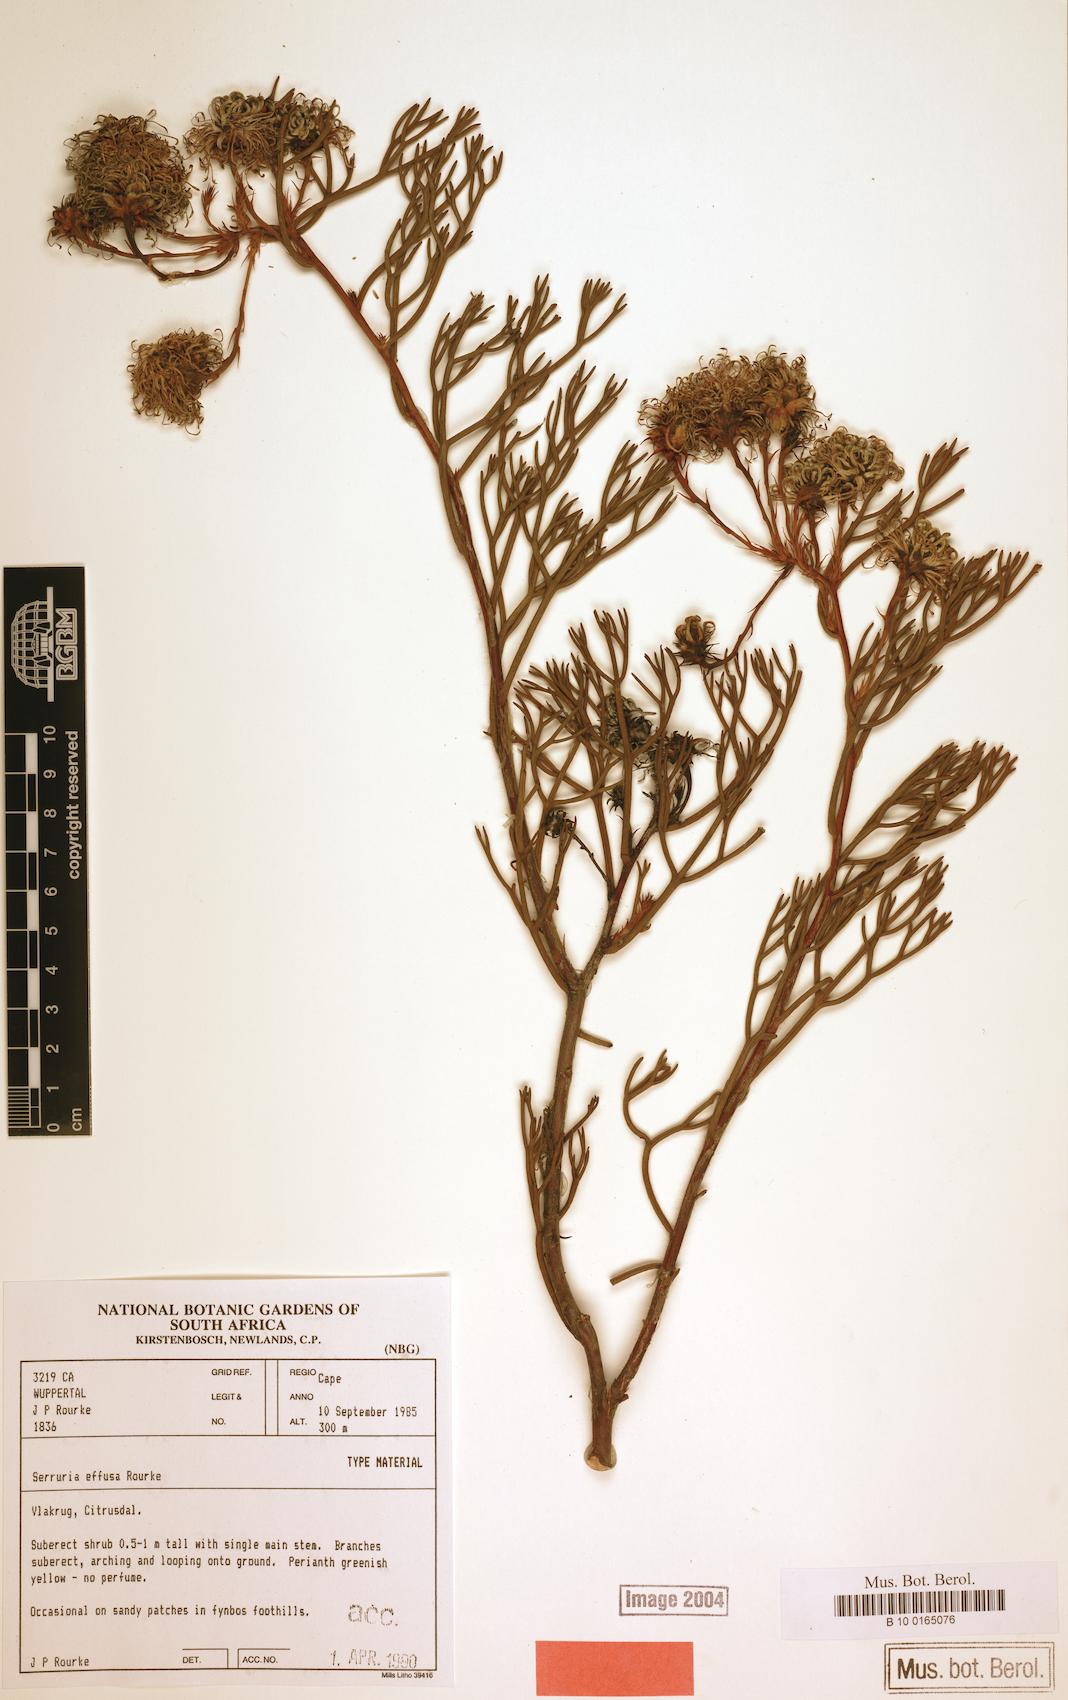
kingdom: Plantae
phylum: Tracheophyta
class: Magnoliopsida
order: Proteales
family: Proteaceae
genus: Serruria
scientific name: Serruria effusa
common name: Candelabra spiderhead
